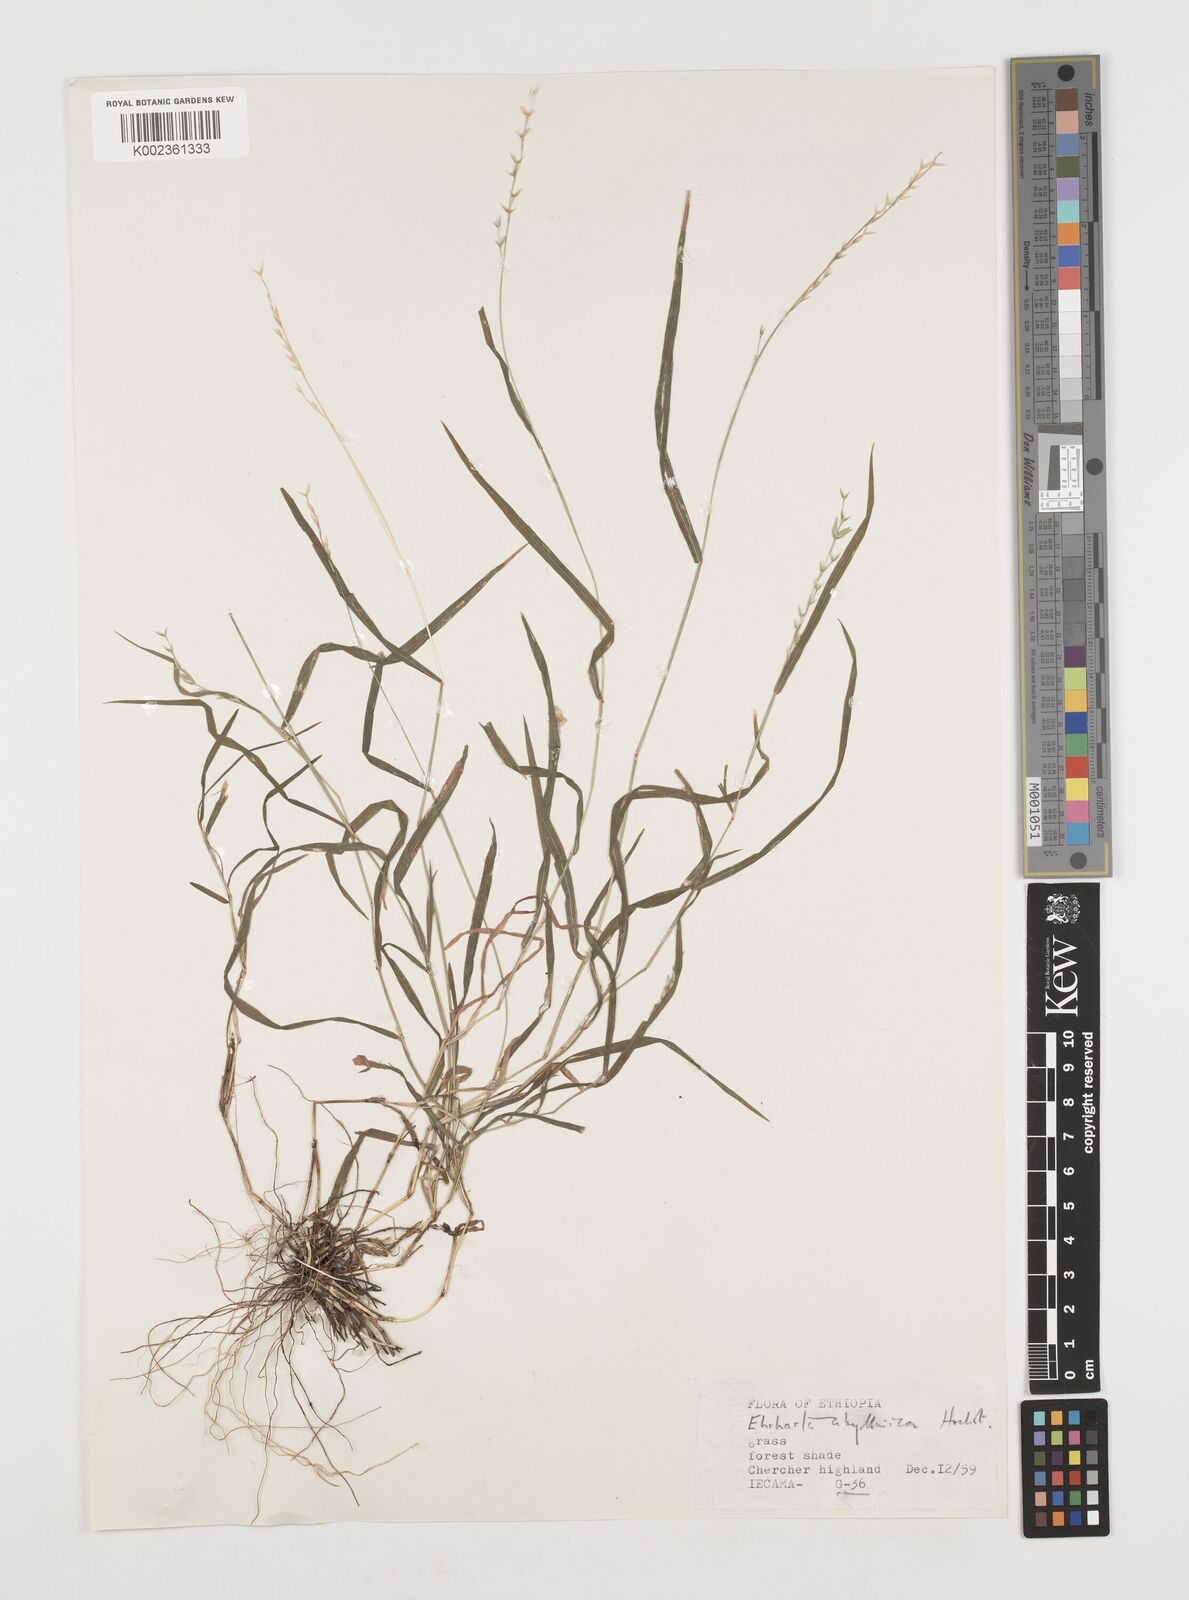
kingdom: Plantae
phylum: Tracheophyta
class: Liliopsida
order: Poales
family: Poaceae
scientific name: Poaceae
